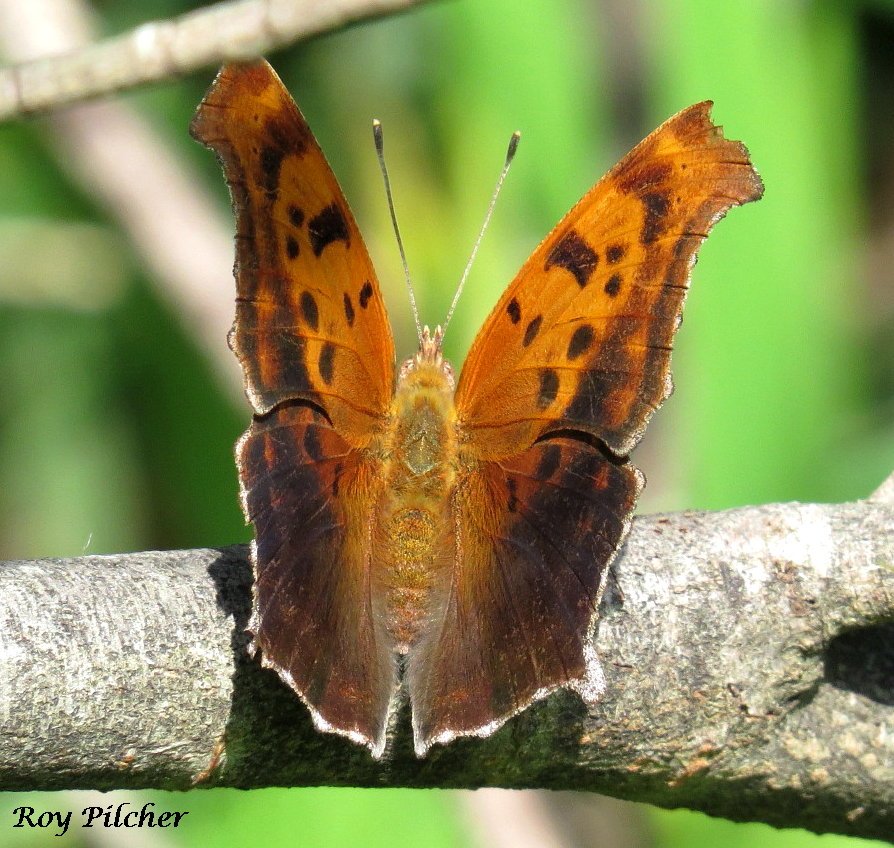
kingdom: Animalia
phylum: Arthropoda
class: Insecta
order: Lepidoptera
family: Nymphalidae
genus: Polygonia
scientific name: Polygonia interrogationis
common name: Question Mark
